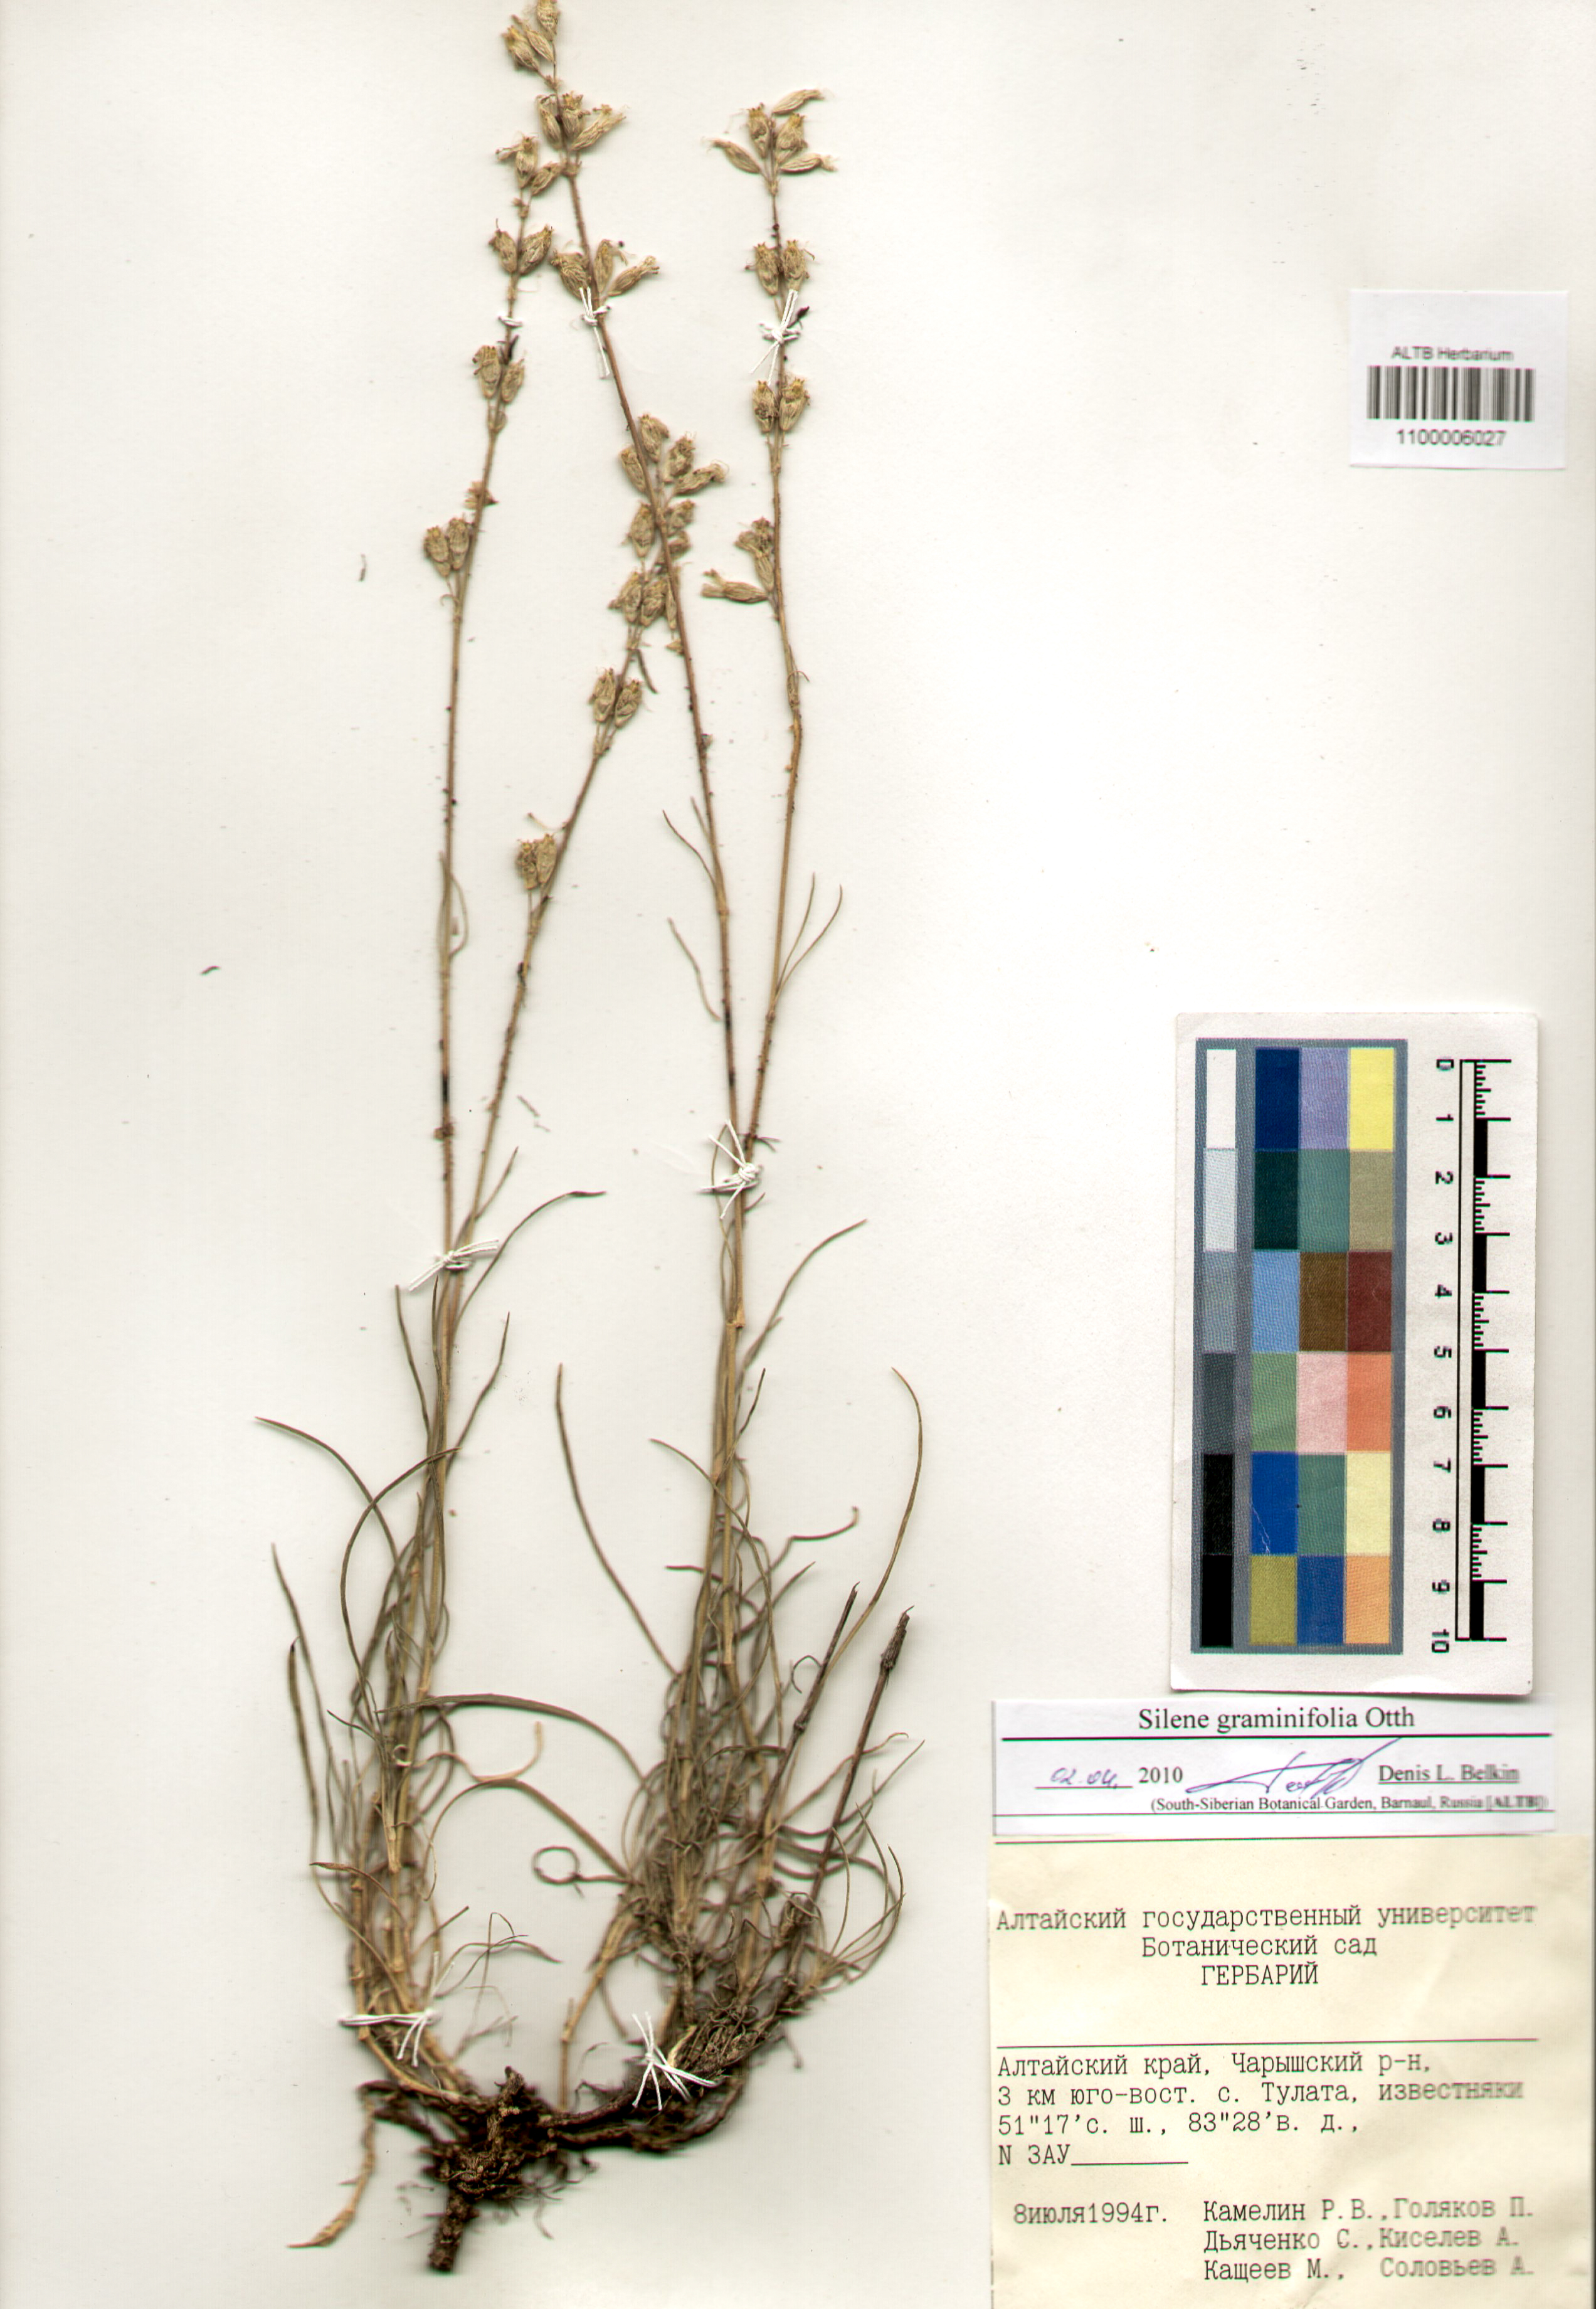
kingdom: Plantae
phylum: Tracheophyta
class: Magnoliopsida
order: Caryophyllales
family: Caryophyllaceae
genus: Silene
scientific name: Silene graminifolia
